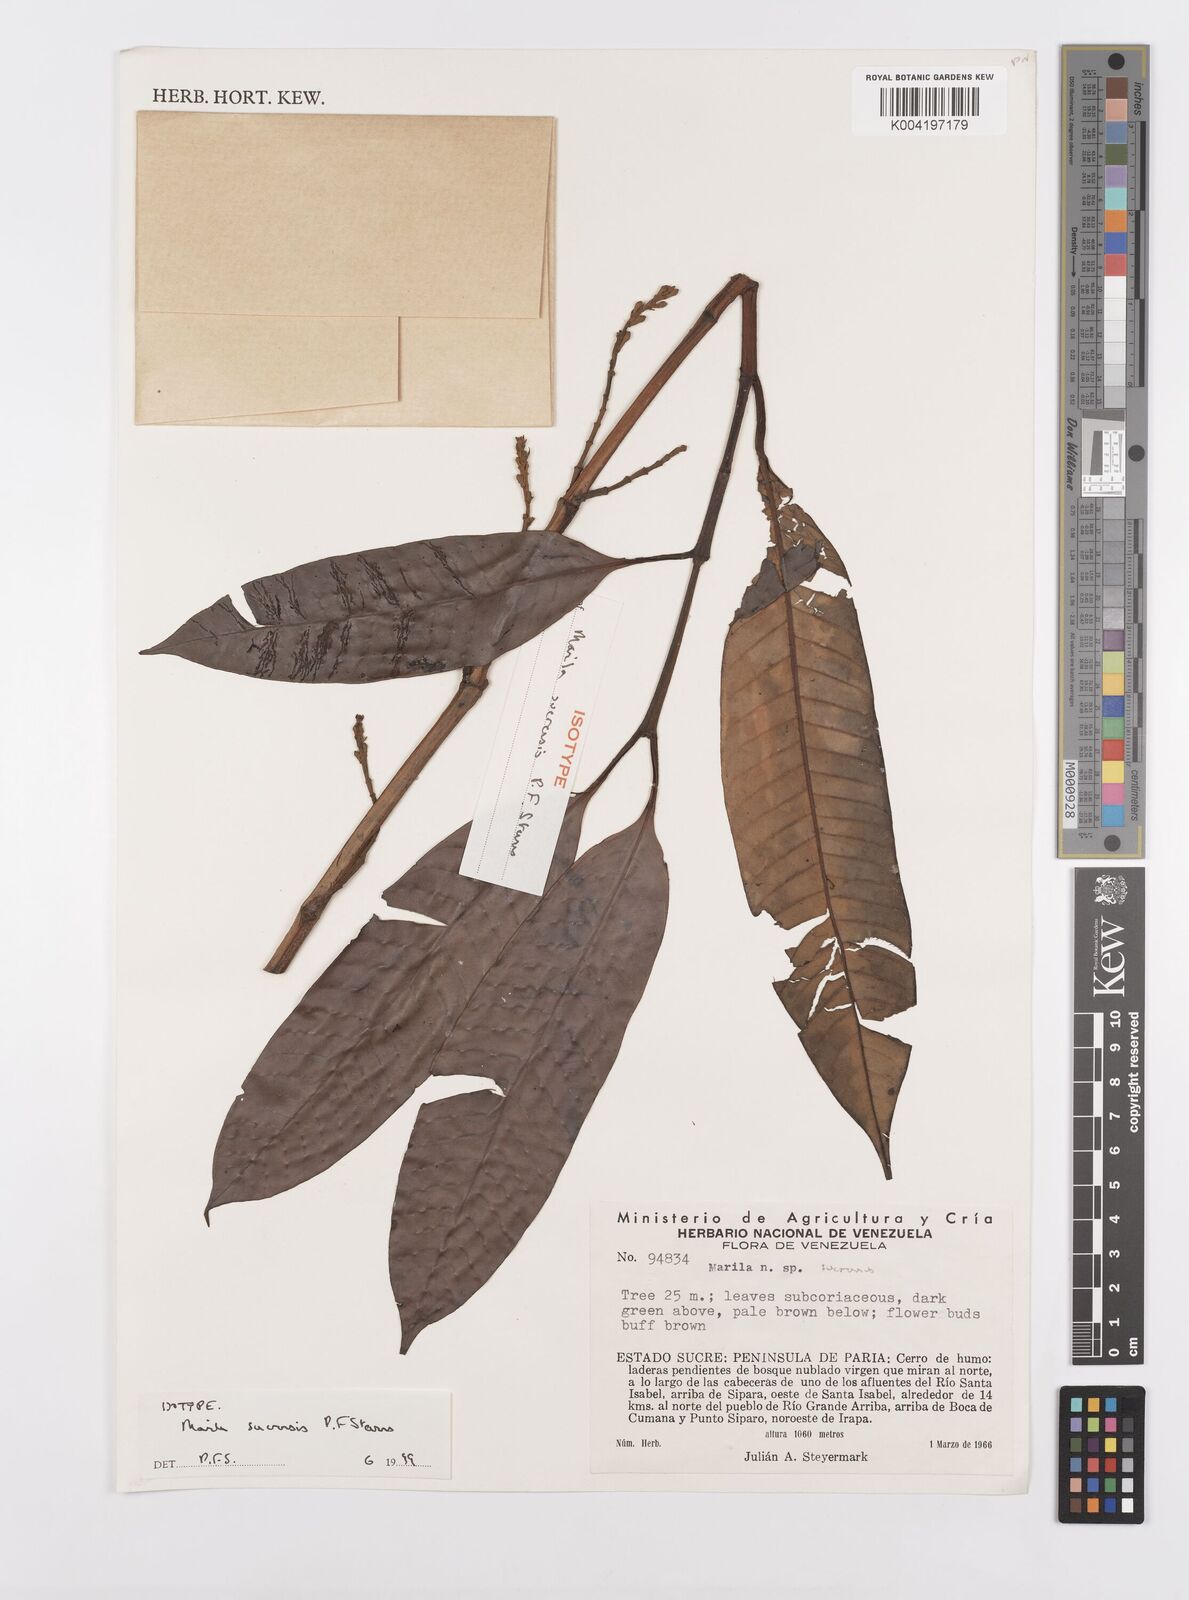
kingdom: Plantae
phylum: Tracheophyta
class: Magnoliopsida
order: Malpighiales
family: Calophyllaceae
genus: Marila
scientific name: Marila
